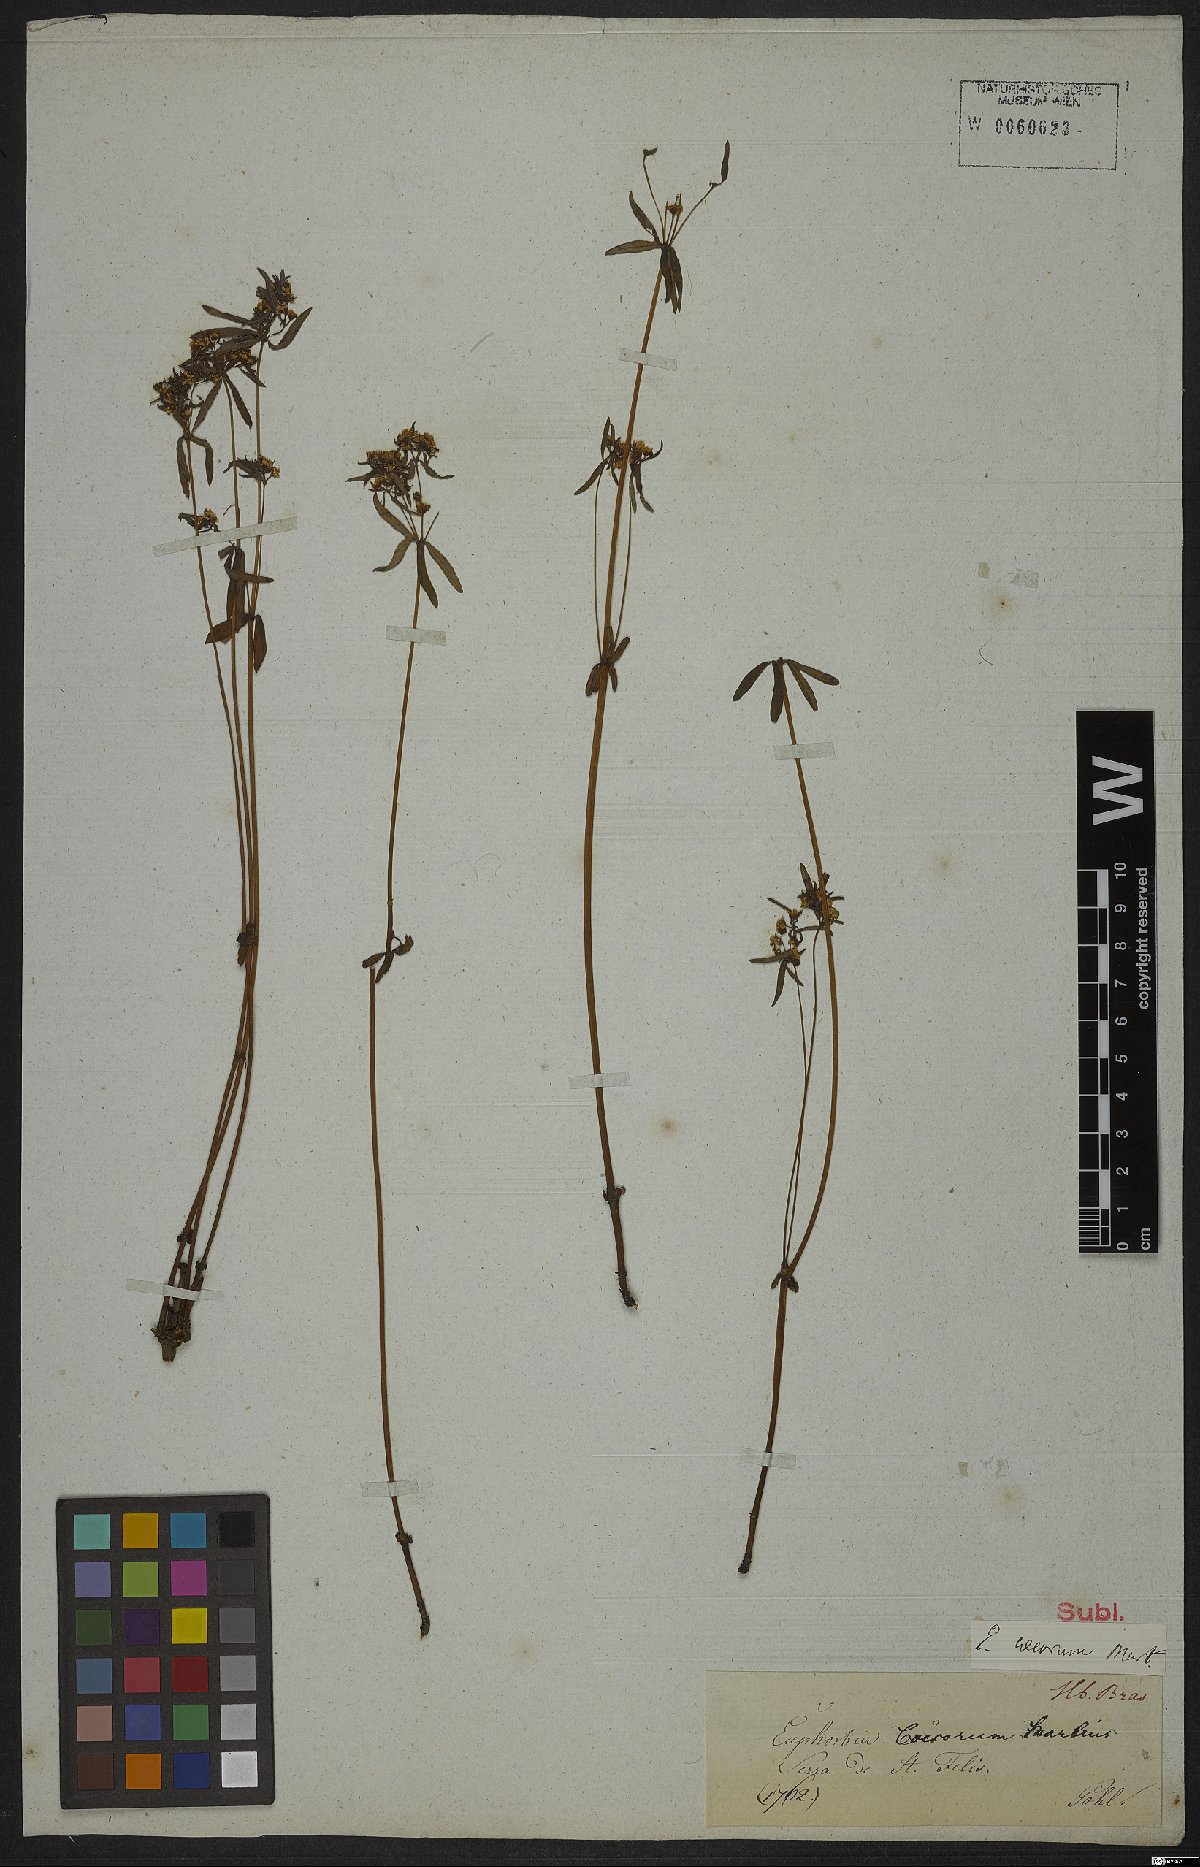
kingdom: Plantae
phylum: Tracheophyta
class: Magnoliopsida
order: Malpighiales
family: Euphorbiaceae
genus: Euphorbia
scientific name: Euphorbia potentilloides
